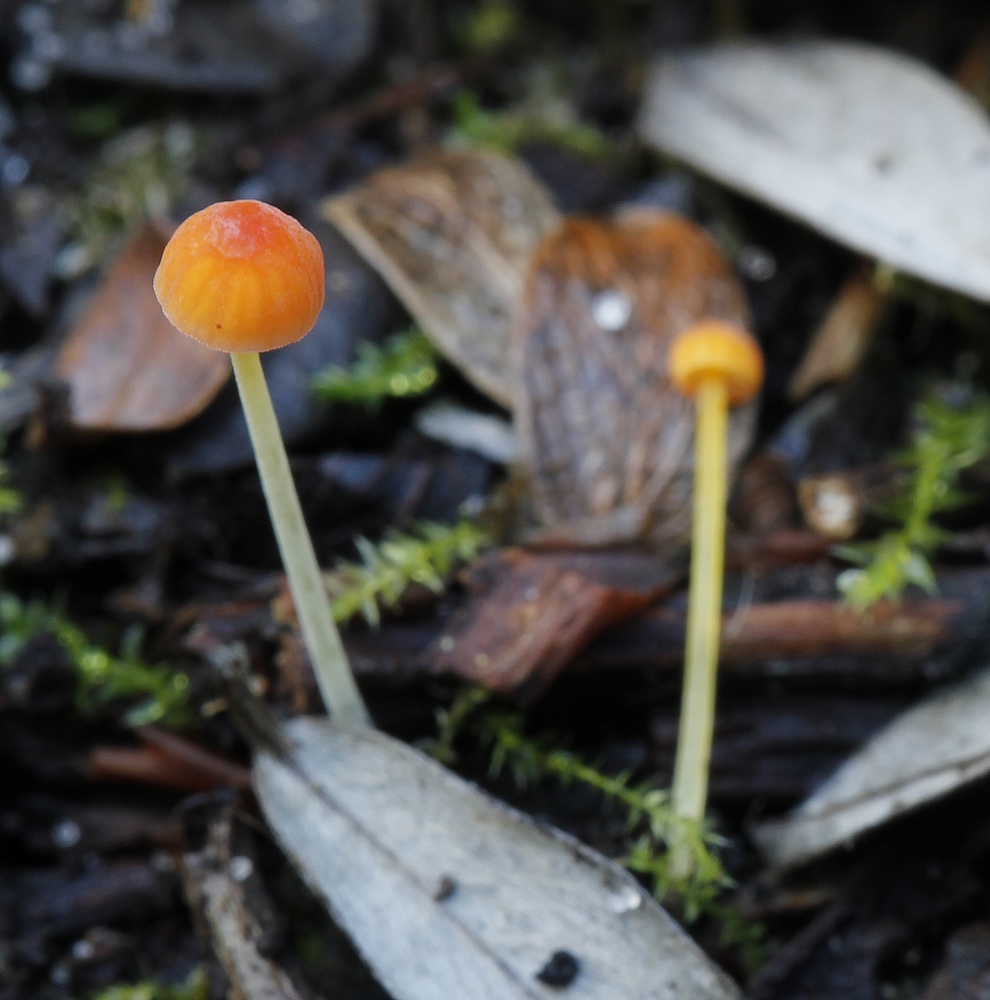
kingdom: Fungi
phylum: Basidiomycota
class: Agaricomycetes
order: Agaricales
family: Mycenaceae
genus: Mycena
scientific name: Mycena acicula
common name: orange huesvamp
